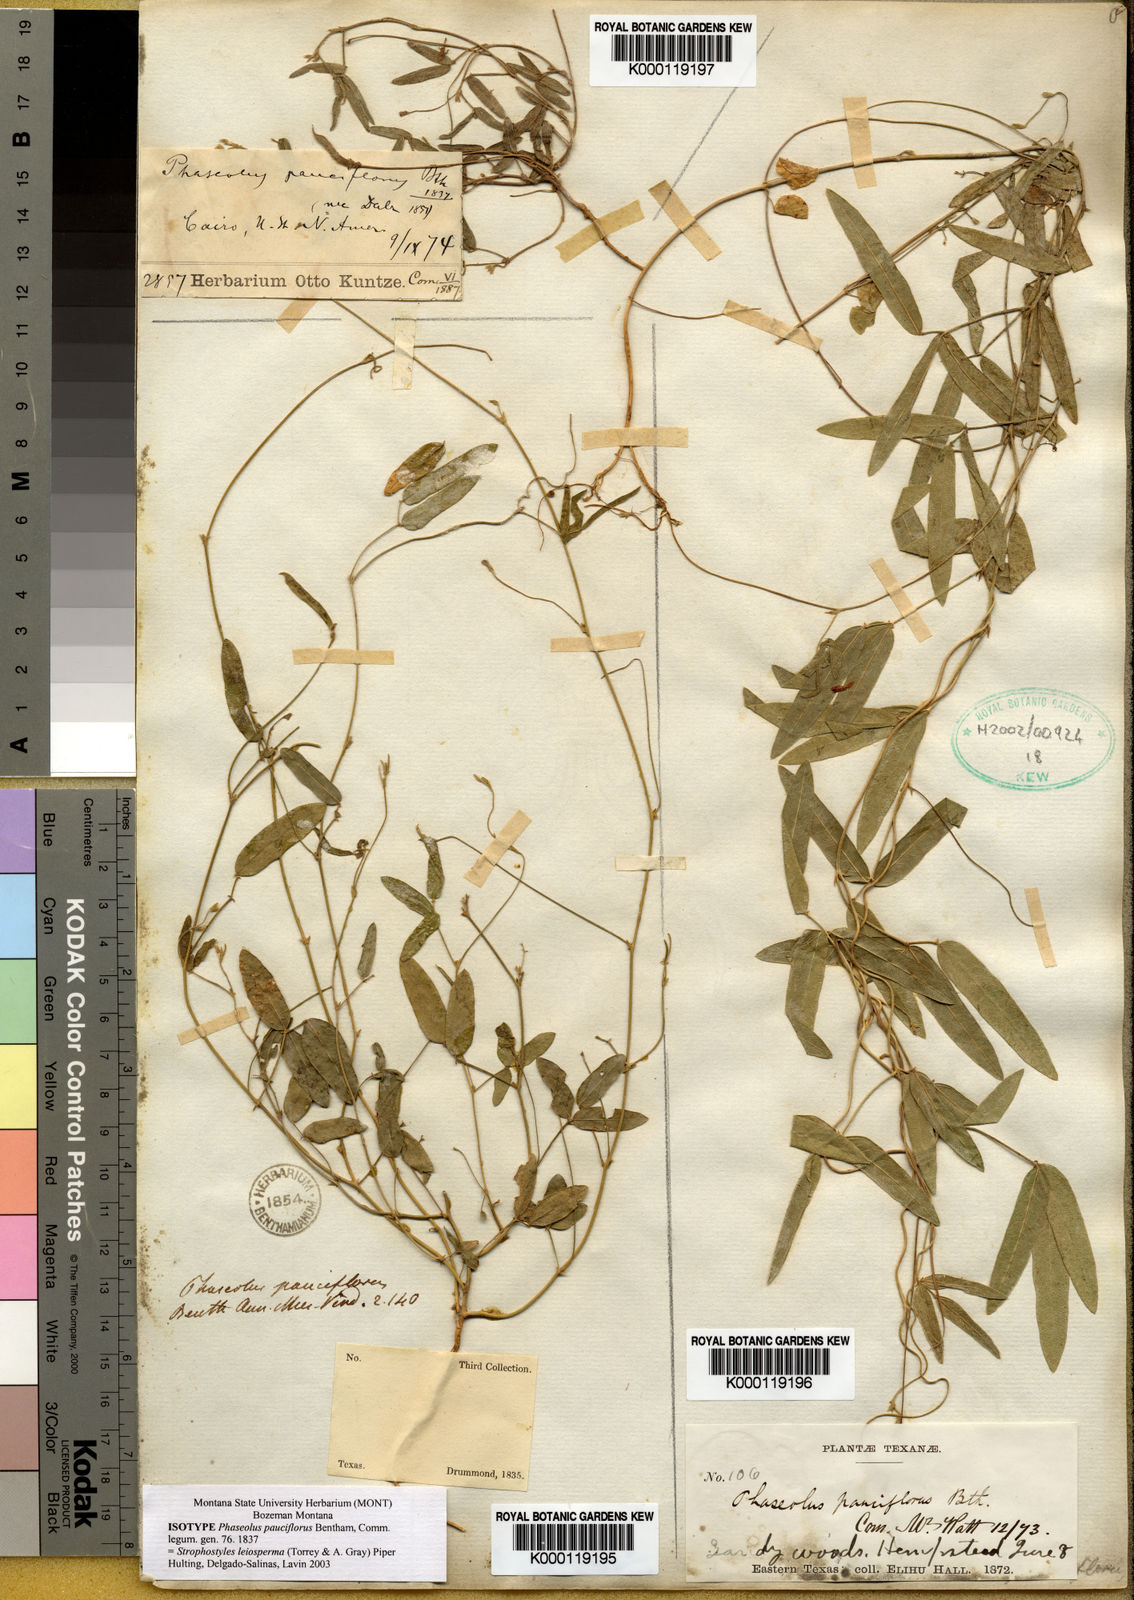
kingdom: Plantae
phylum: Tracheophyta
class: Magnoliopsida
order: Fabales
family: Fabaceae
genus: Strophostyles
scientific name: Strophostyles leiosperma
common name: Smooth-seed wild bean
